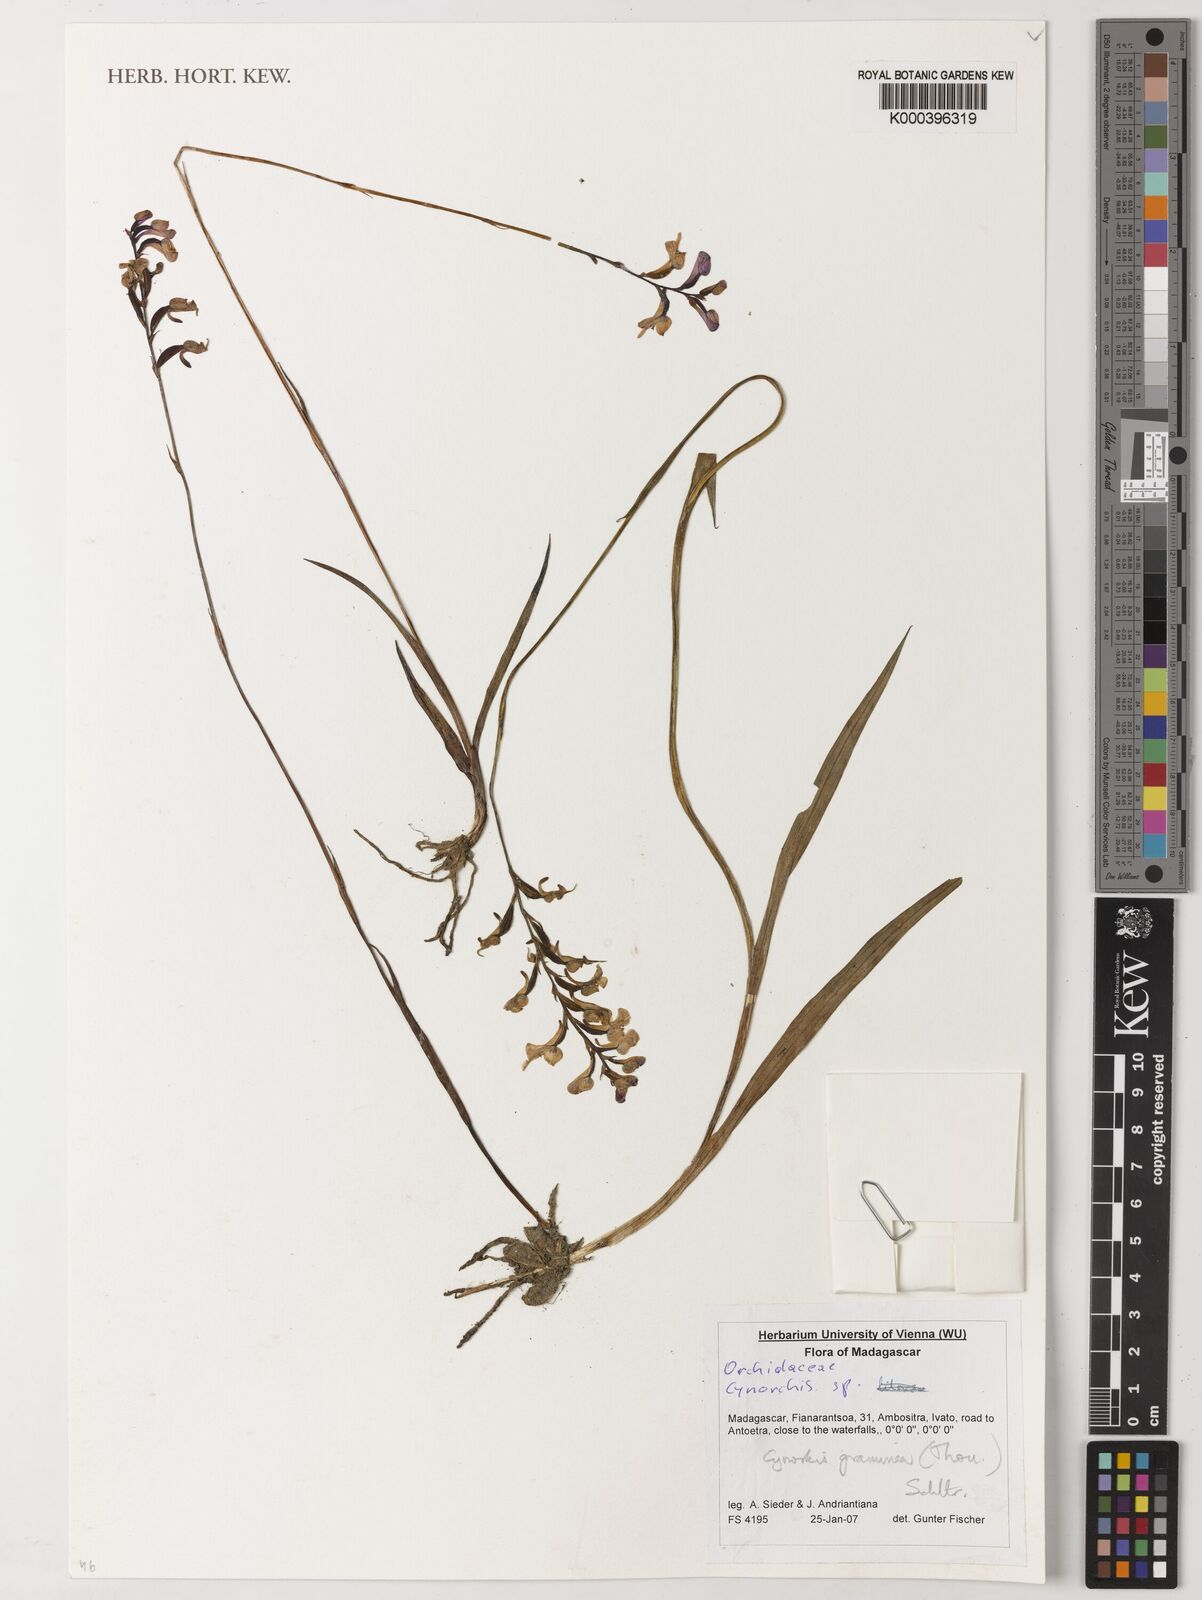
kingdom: Plantae
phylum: Tracheophyta
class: Liliopsida
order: Asparagales
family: Orchidaceae
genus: Cynorkis
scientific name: Cynorkis
